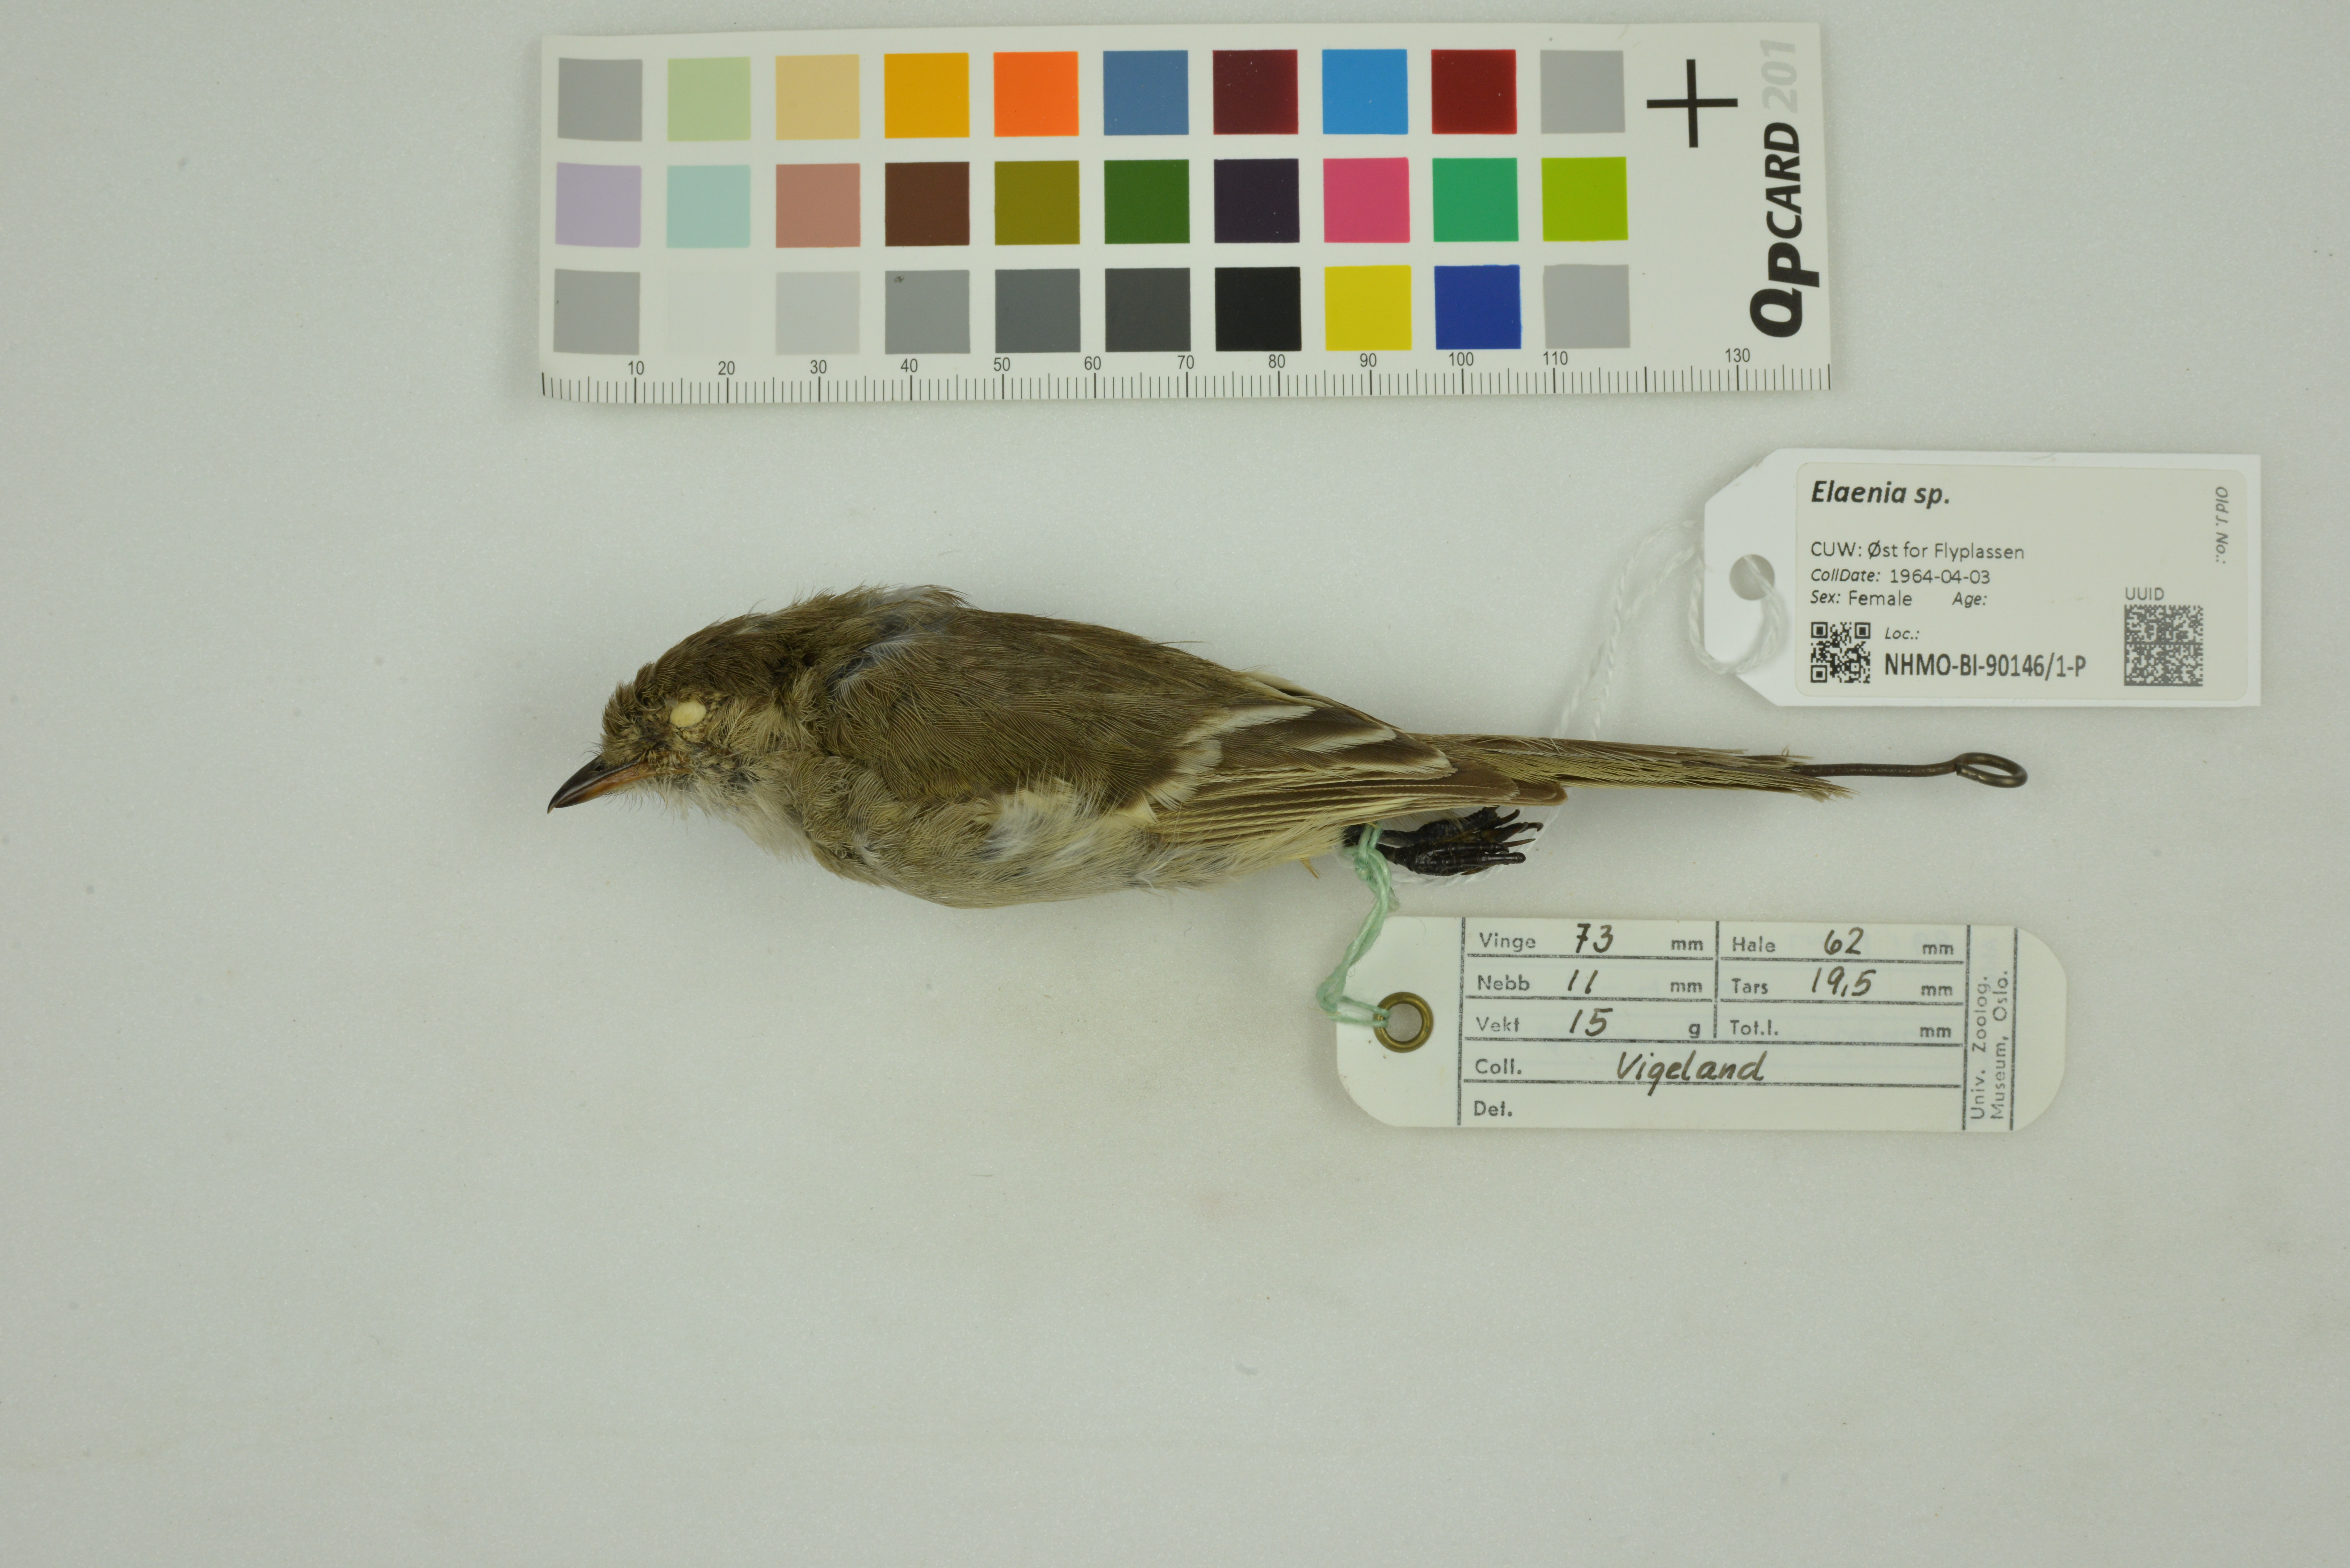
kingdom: Animalia
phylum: Chordata
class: Aves
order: Passeriformes
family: Tyrannidae
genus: Elaenia
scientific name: Elaenia
